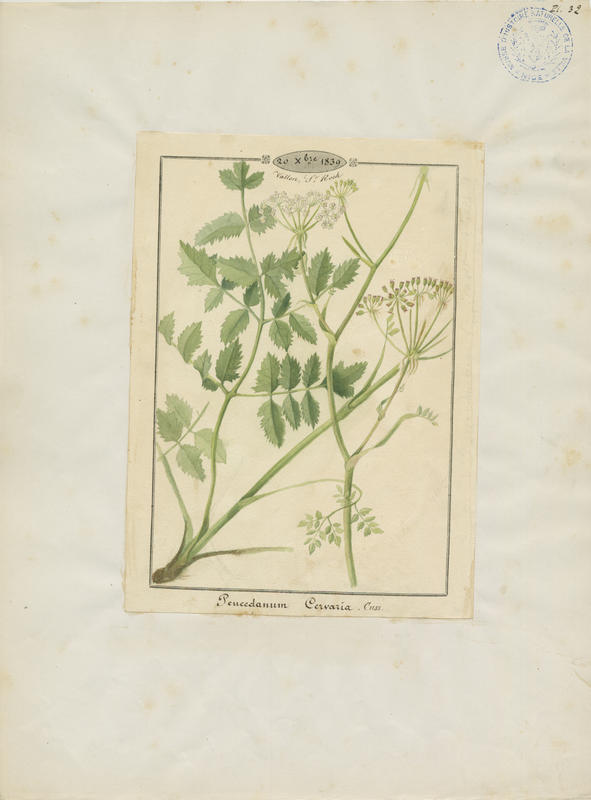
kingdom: Plantae
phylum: Tracheophyta
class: Magnoliopsida
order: Apiales
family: Apiaceae
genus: Cervaria
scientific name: Cervaria rivini
